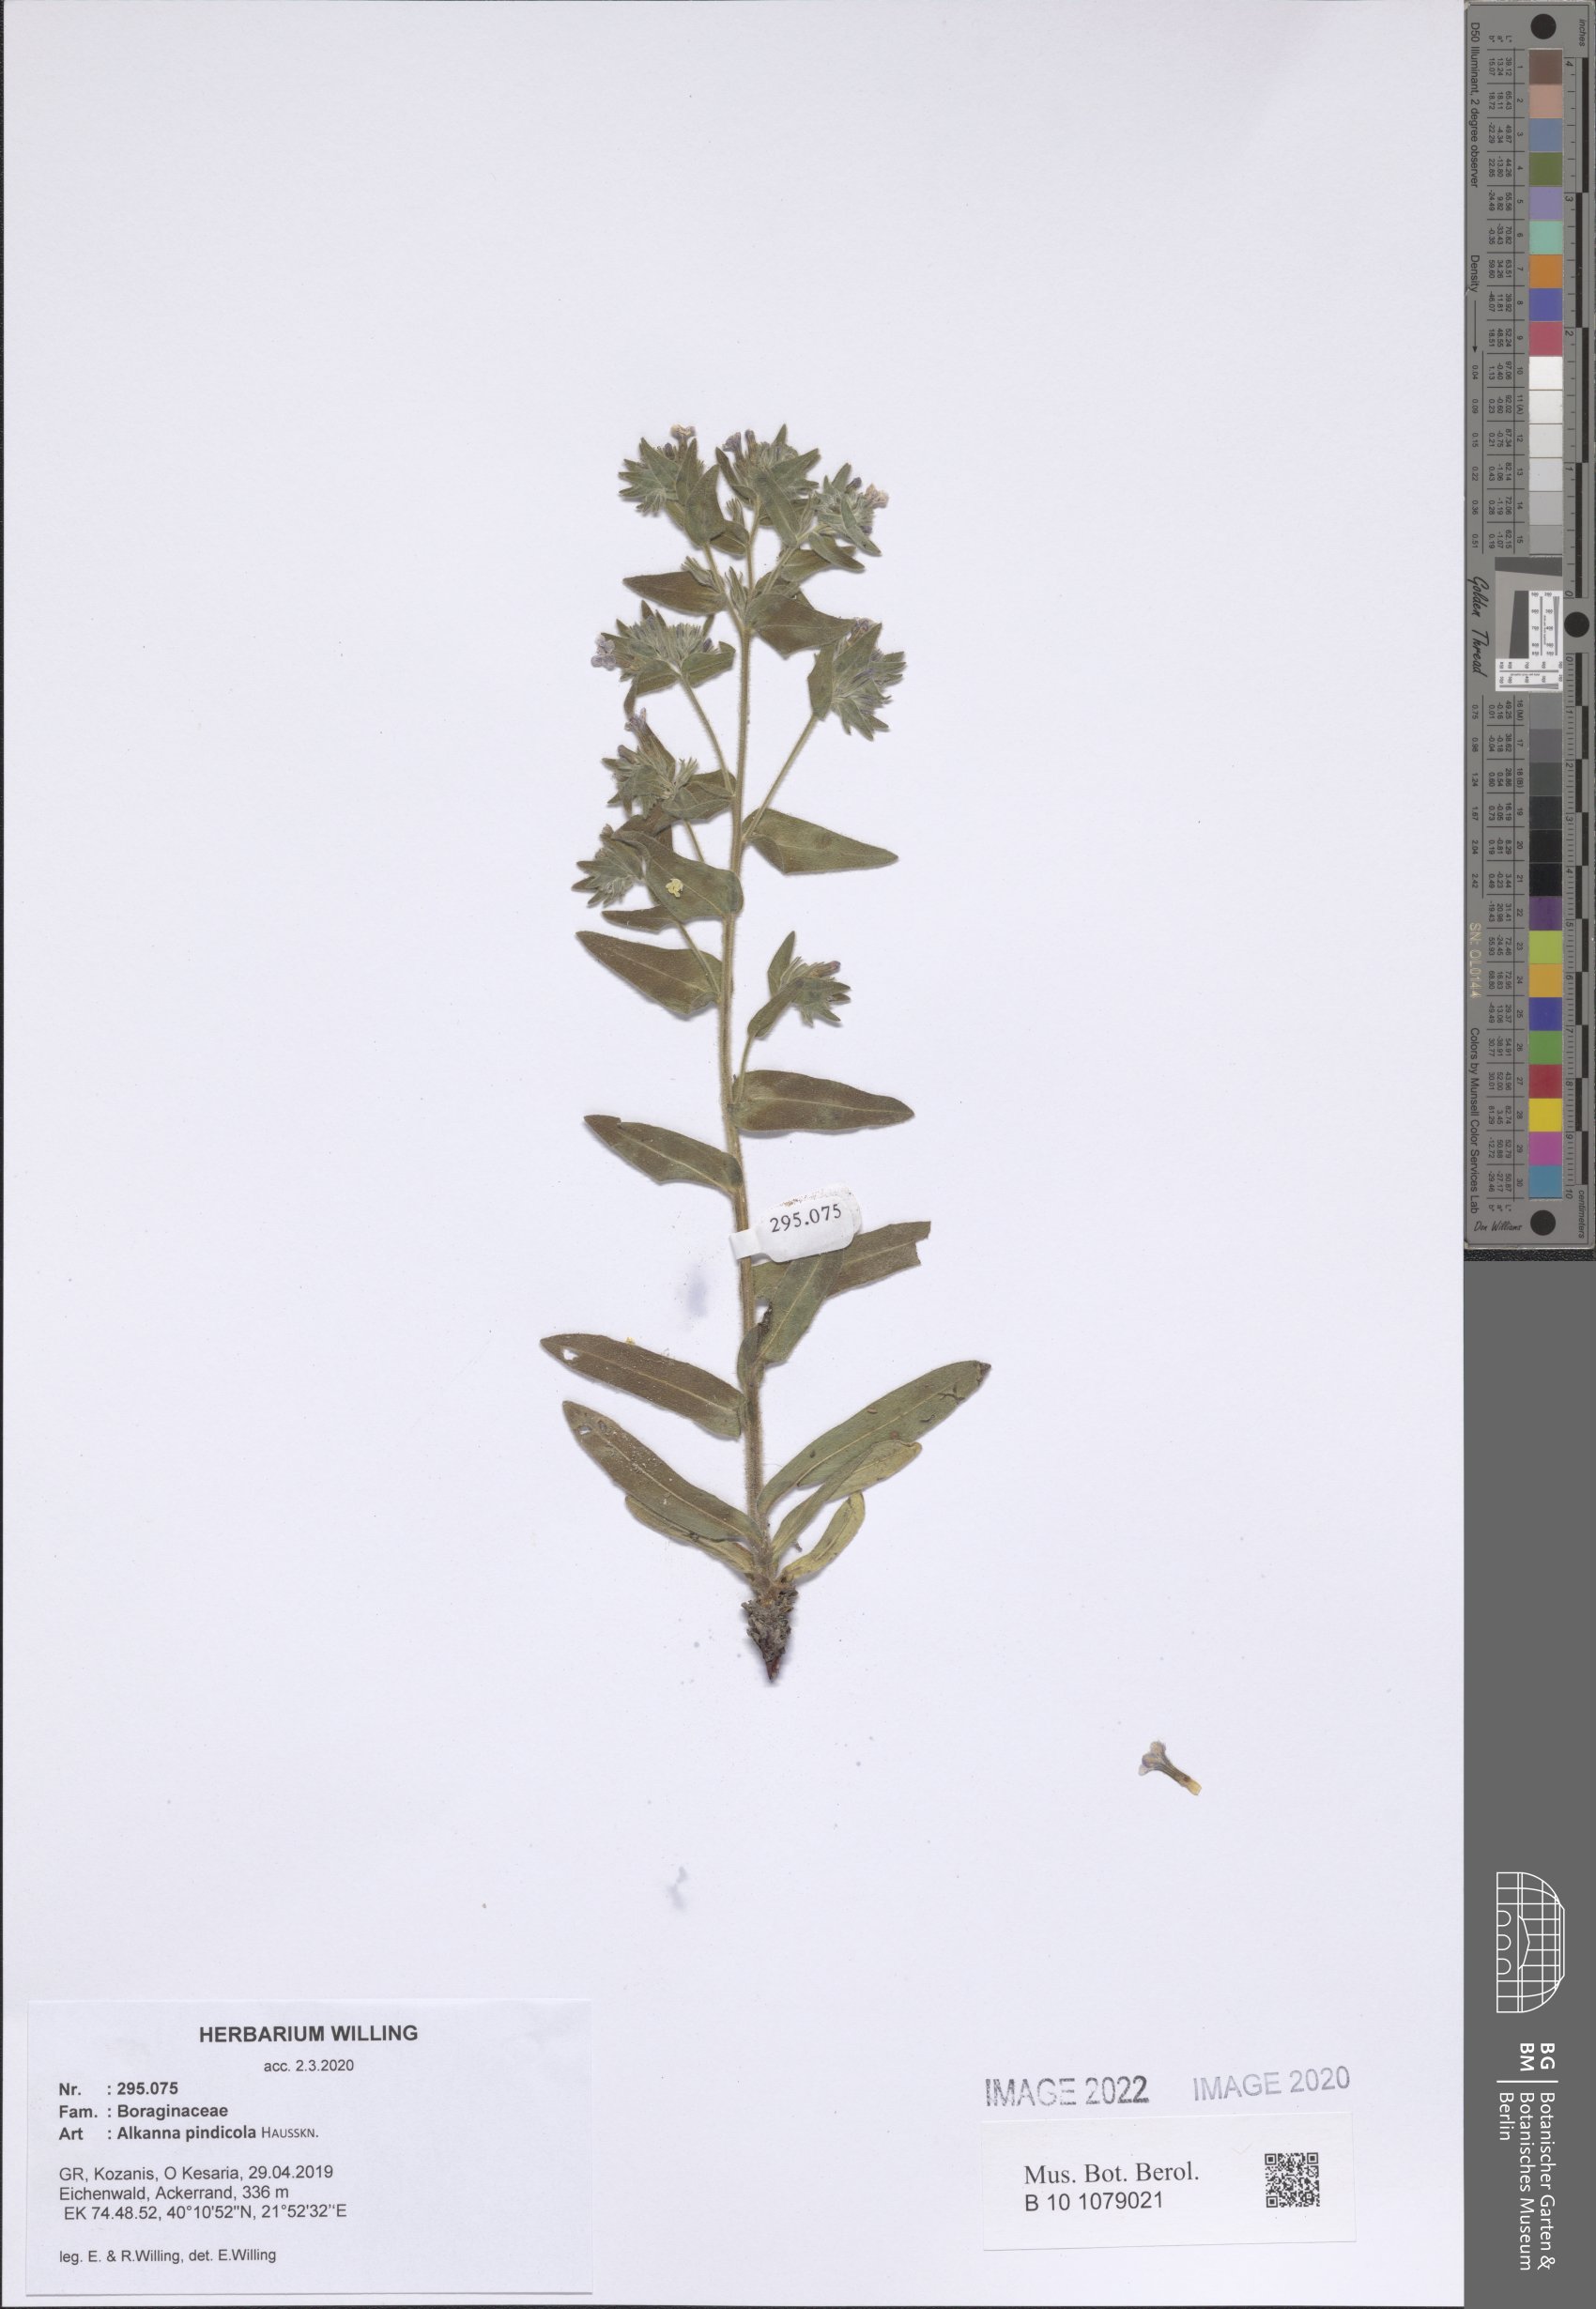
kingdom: Plantae
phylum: Tracheophyta
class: Magnoliopsida
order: Boraginales
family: Boraginaceae
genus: Alkanna
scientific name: Alkanna pindicola
